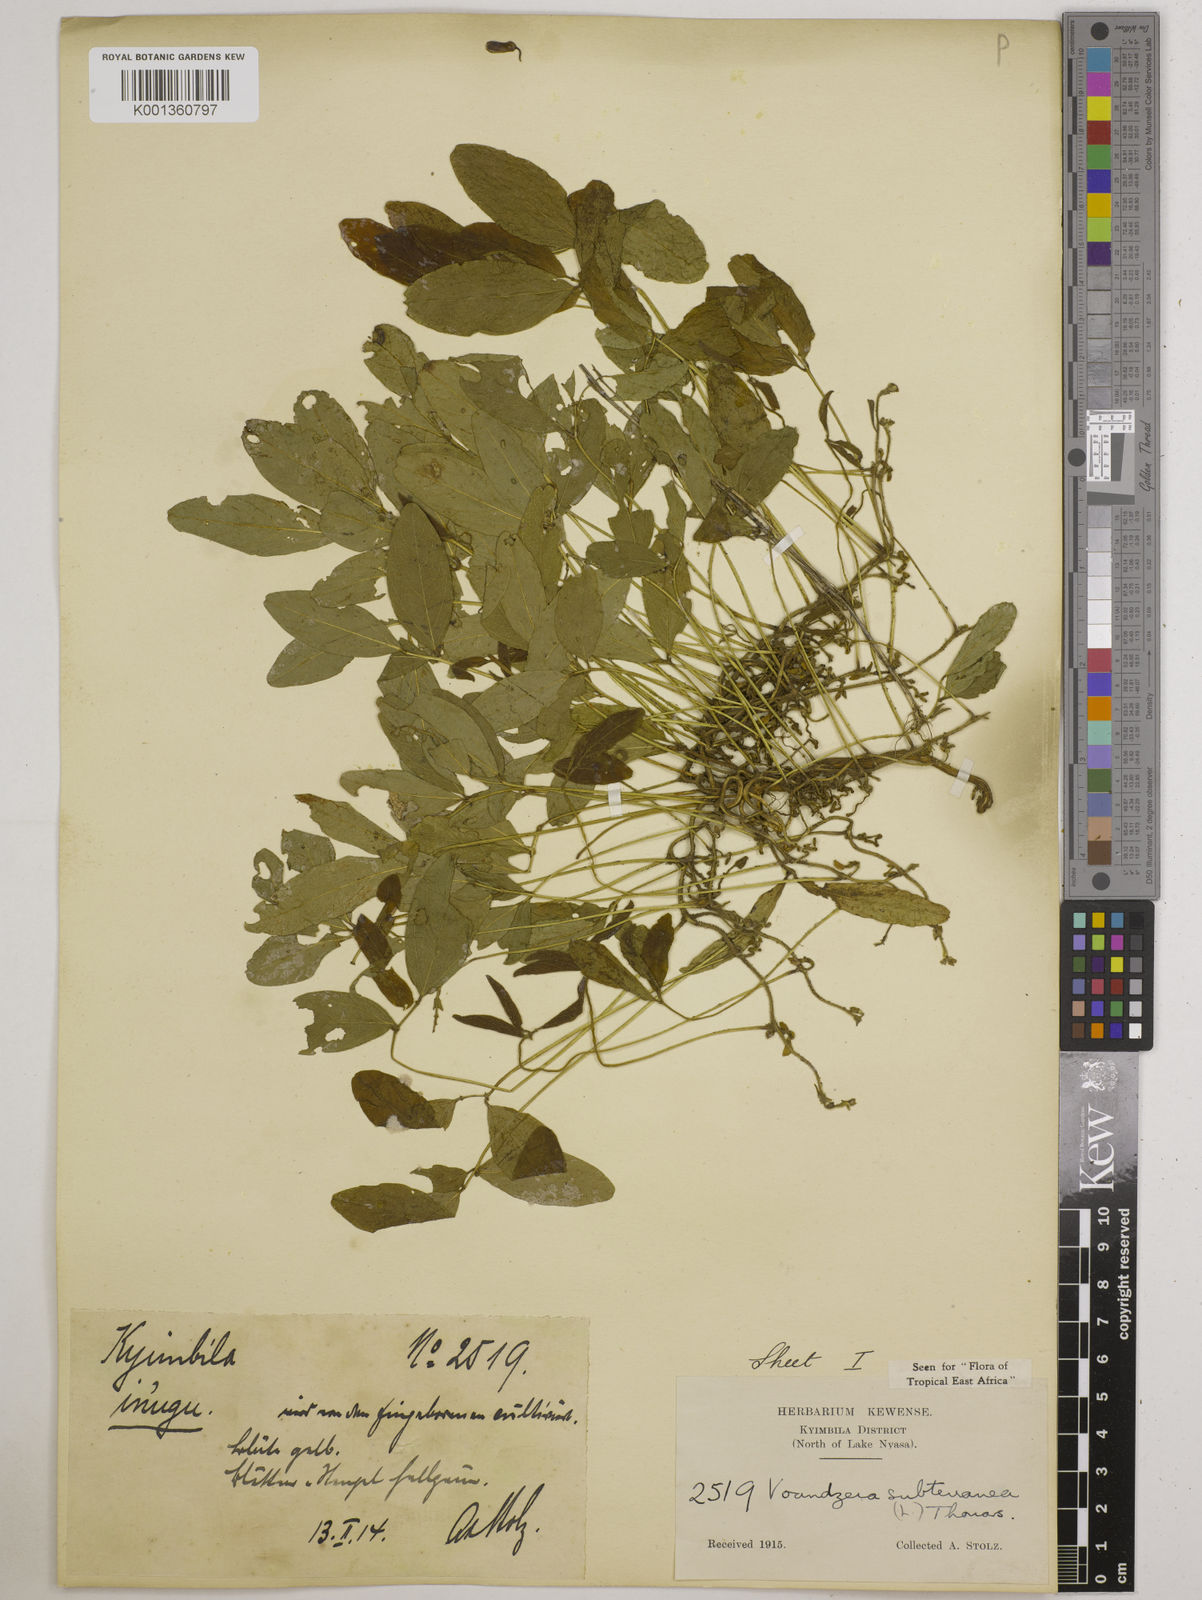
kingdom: Plantae
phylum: Tracheophyta
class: Magnoliopsida
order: Fabales
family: Fabaceae
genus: Vigna
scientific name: Vigna subterranea
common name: Bambara groundnut
